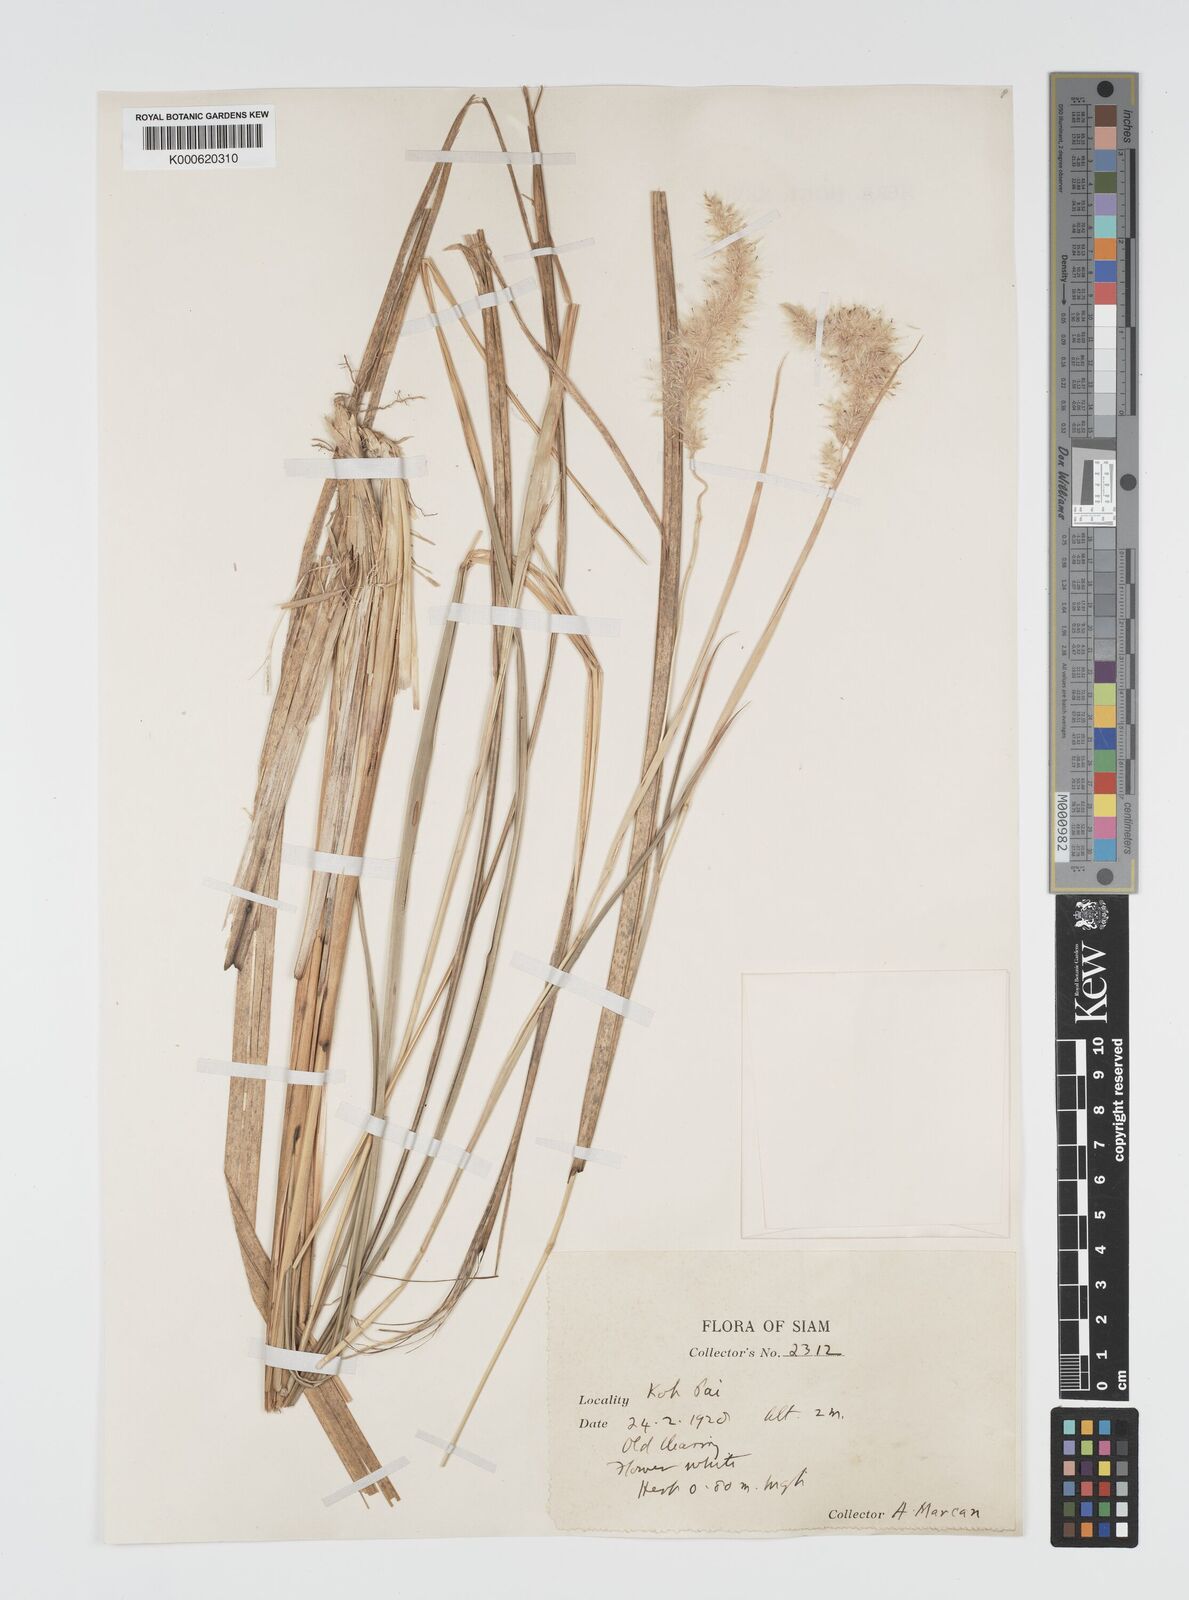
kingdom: Plantae
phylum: Tracheophyta
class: Liliopsida
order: Poales
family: Poaceae
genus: Imperata
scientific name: Imperata cylindrica
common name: Cogongrass
